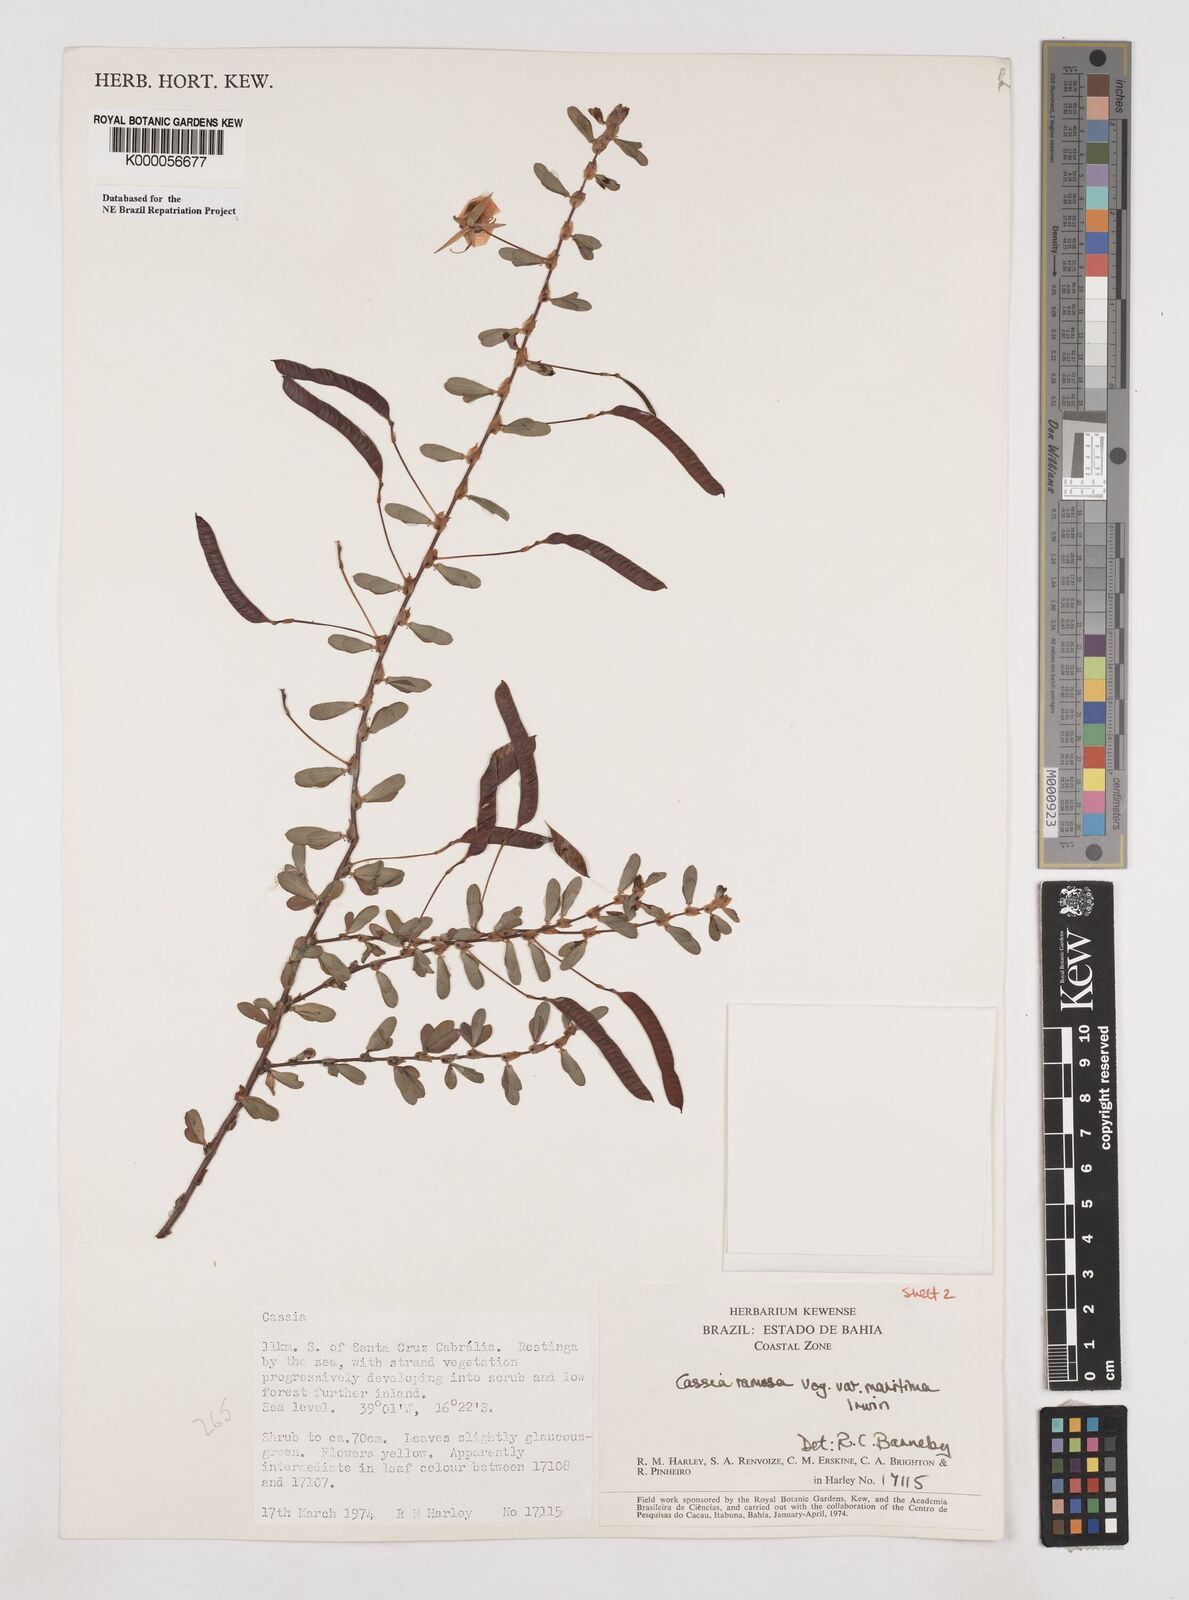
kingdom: Plantae
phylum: Tracheophyta
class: Magnoliopsida
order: Fabales
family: Fabaceae
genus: Chamaecrista
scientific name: Chamaecrista ramosa
